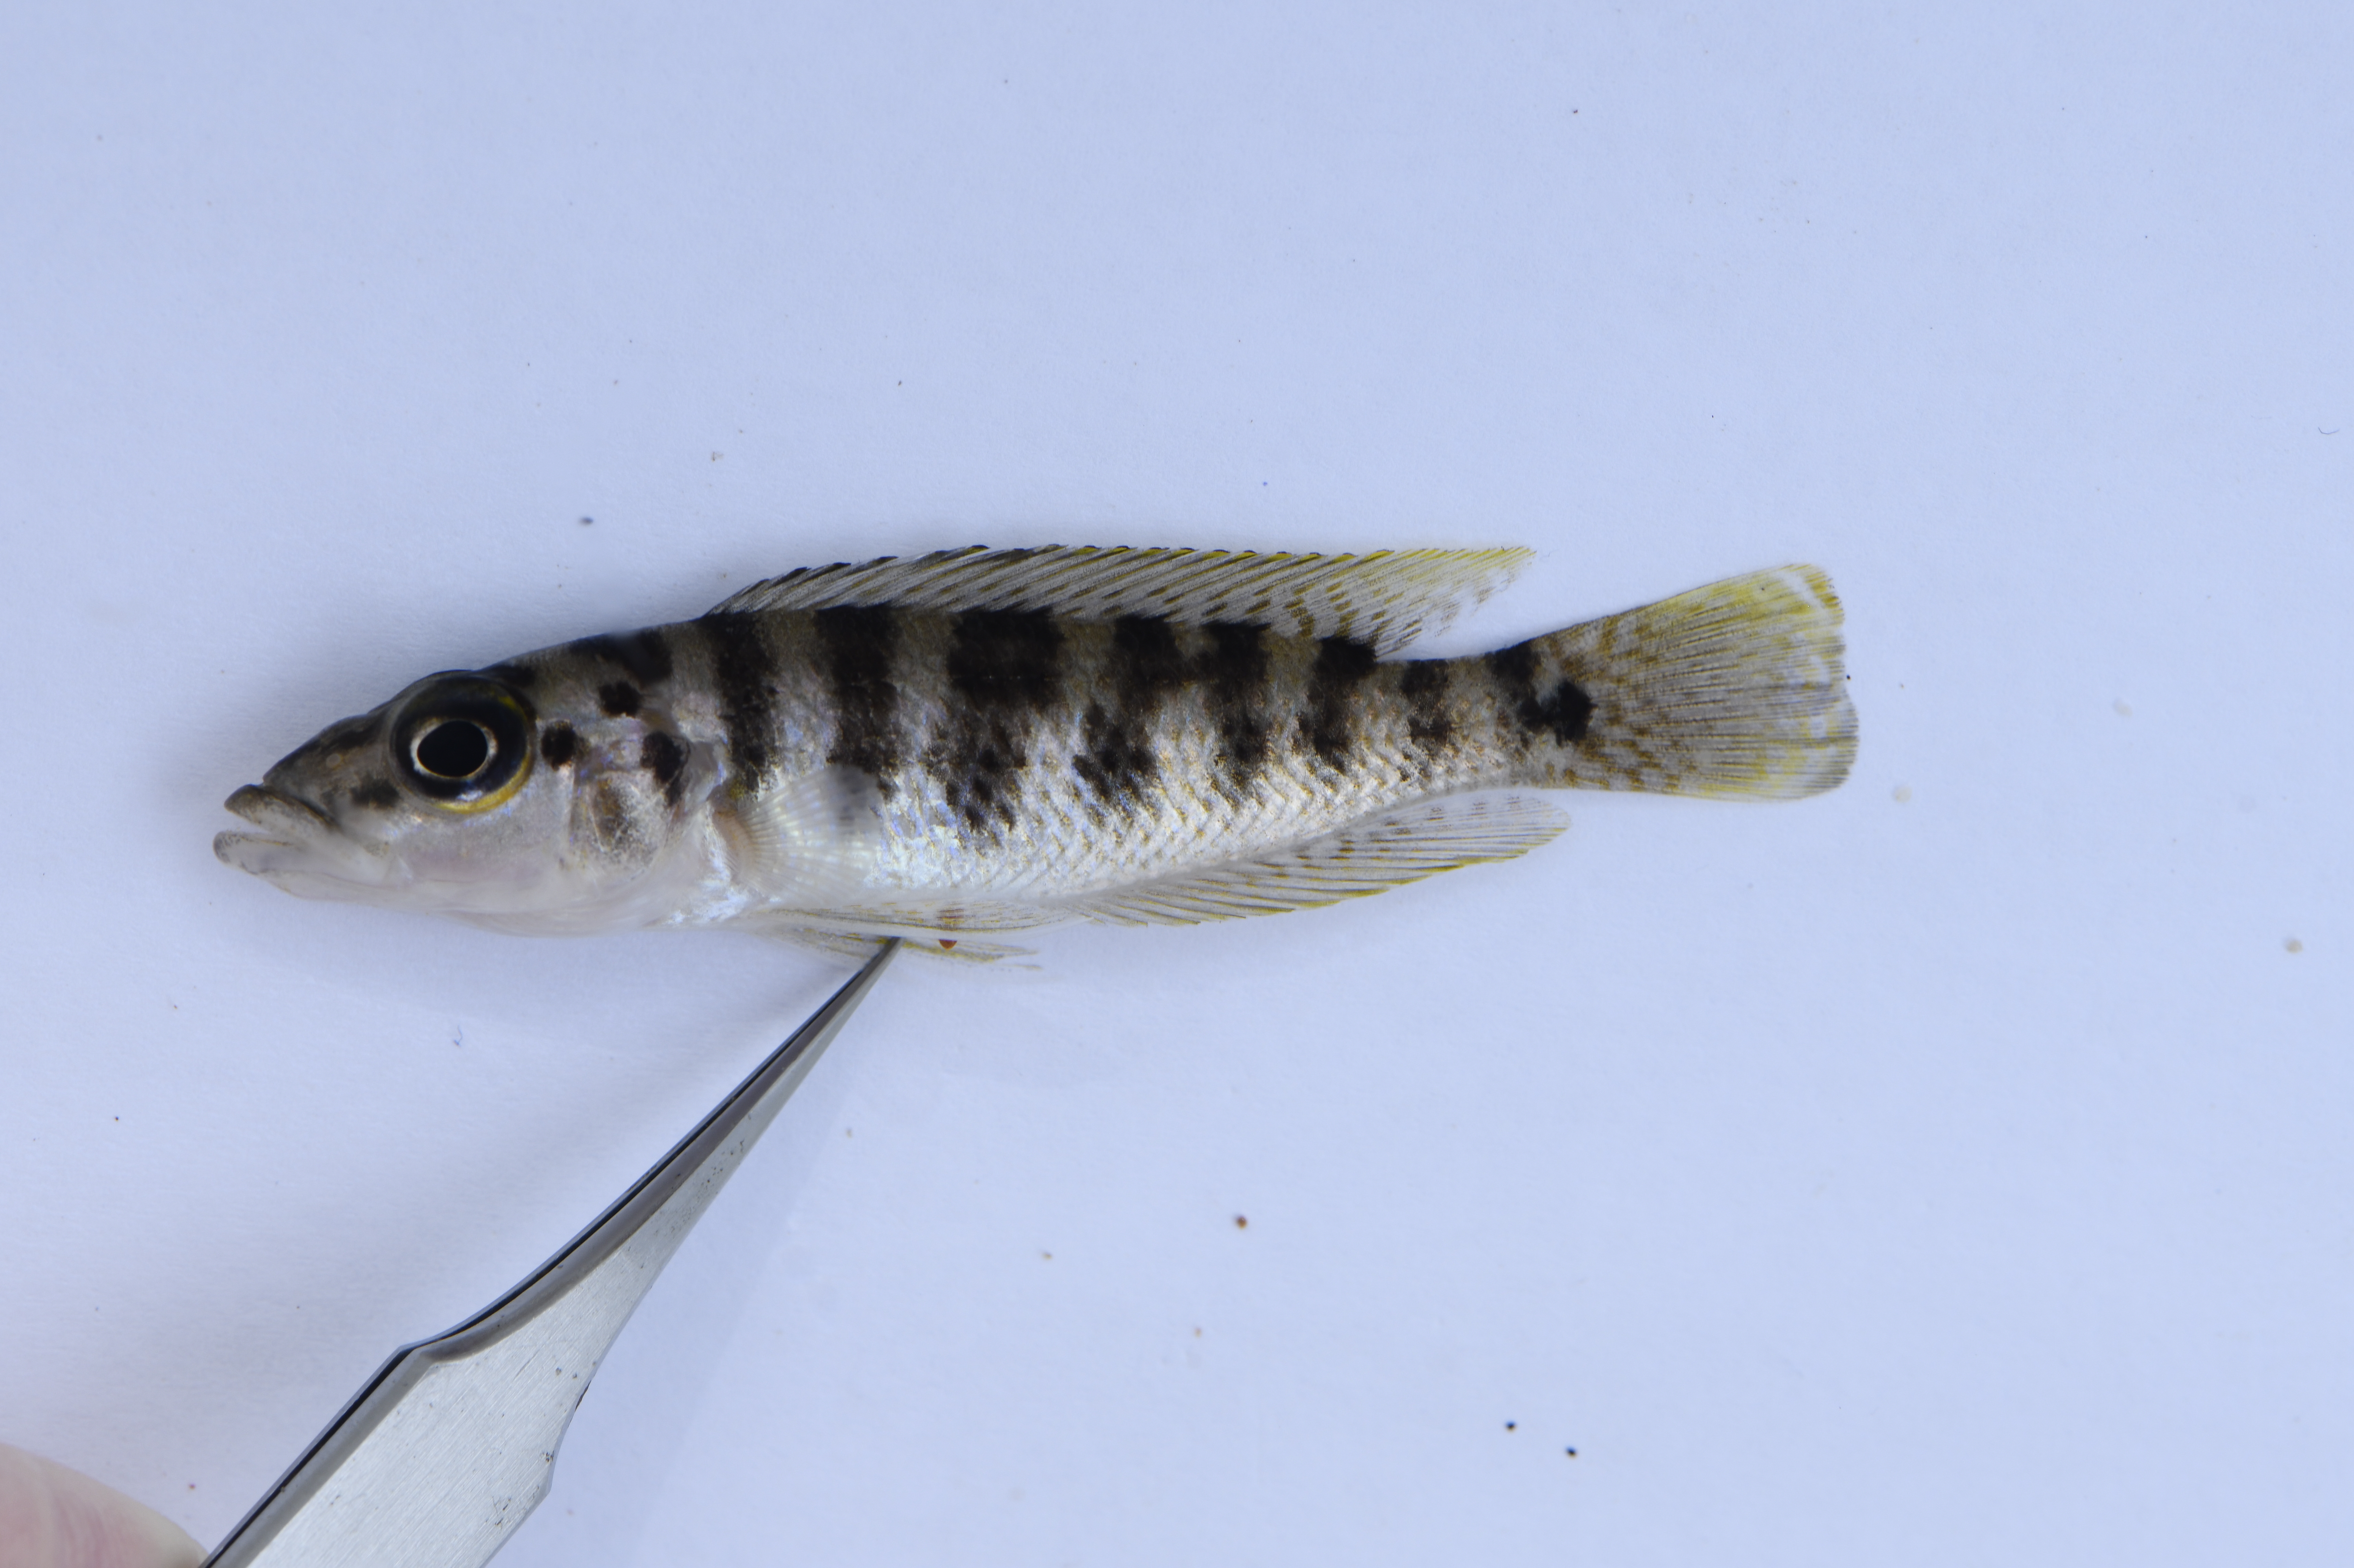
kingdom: Animalia
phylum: Chordata
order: Perciformes
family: Cichlidae
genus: Neolamprologus
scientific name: Neolamprologus fasciatus
